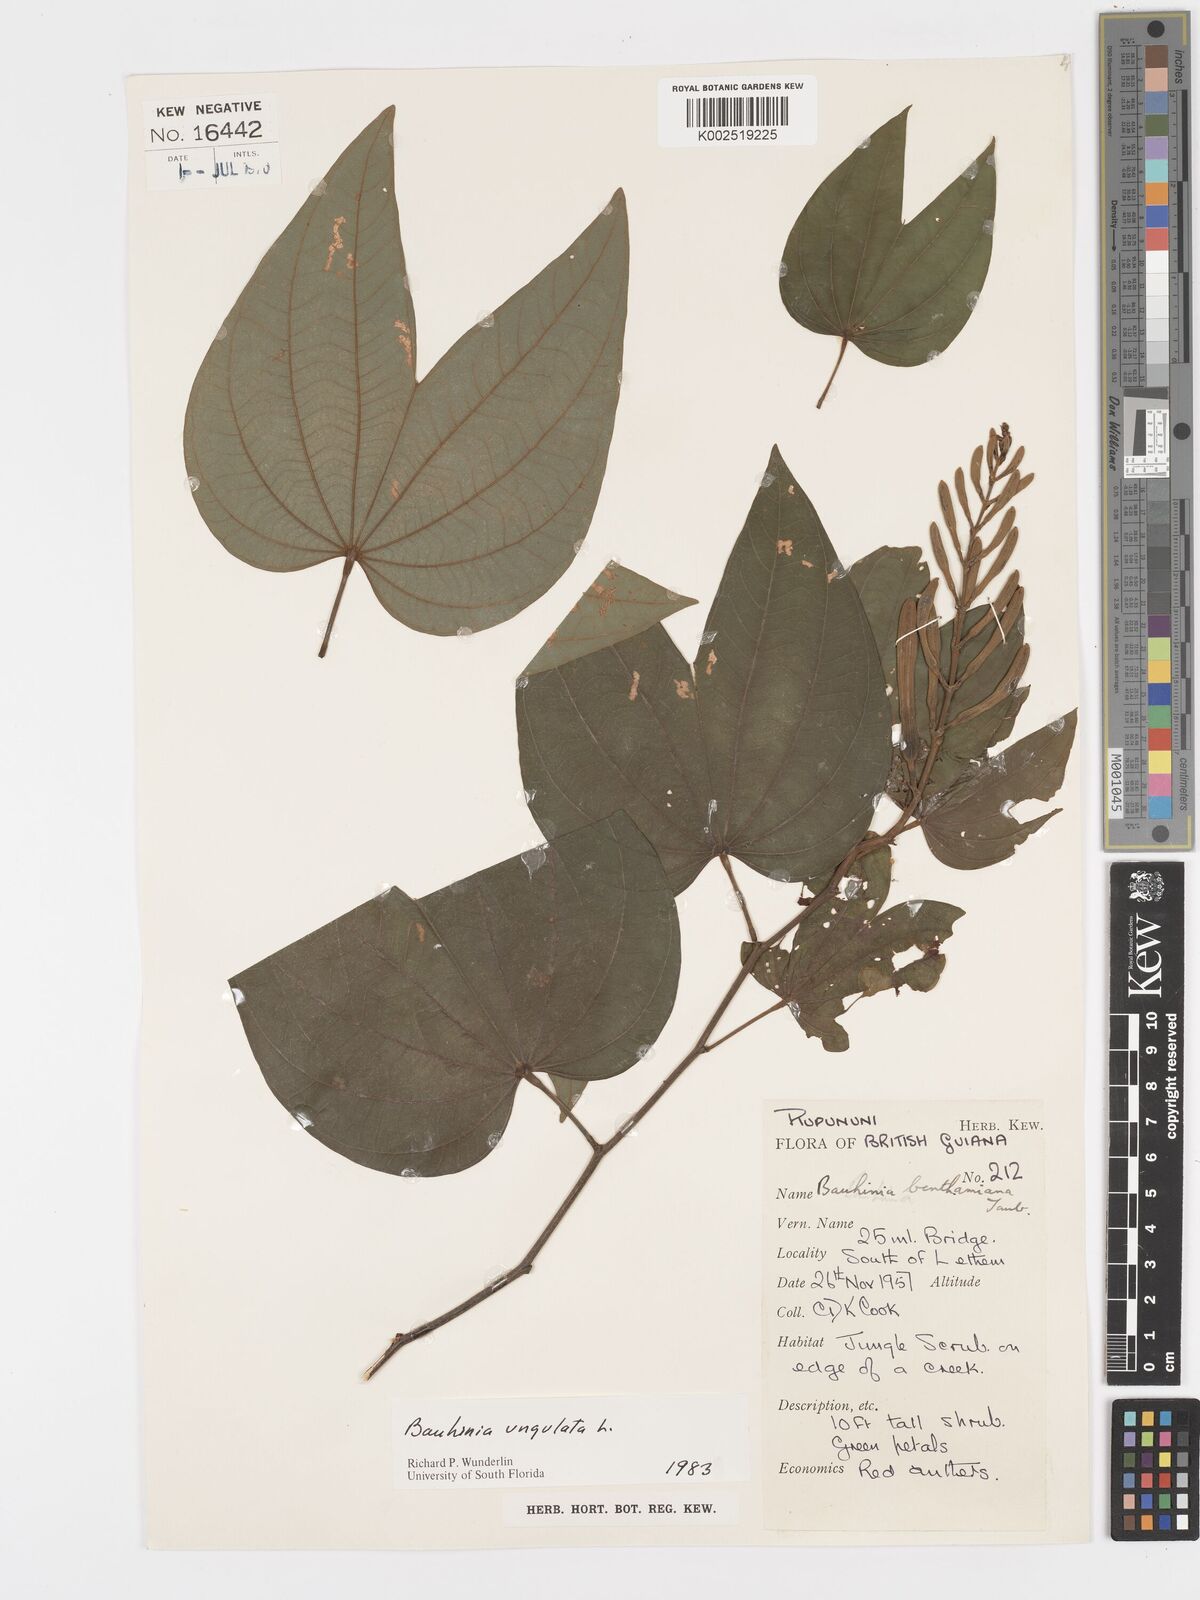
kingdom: Plantae
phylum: Tracheophyta
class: Magnoliopsida
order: Fabales
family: Fabaceae
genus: Bauhinia
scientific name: Bauhinia ungulata
